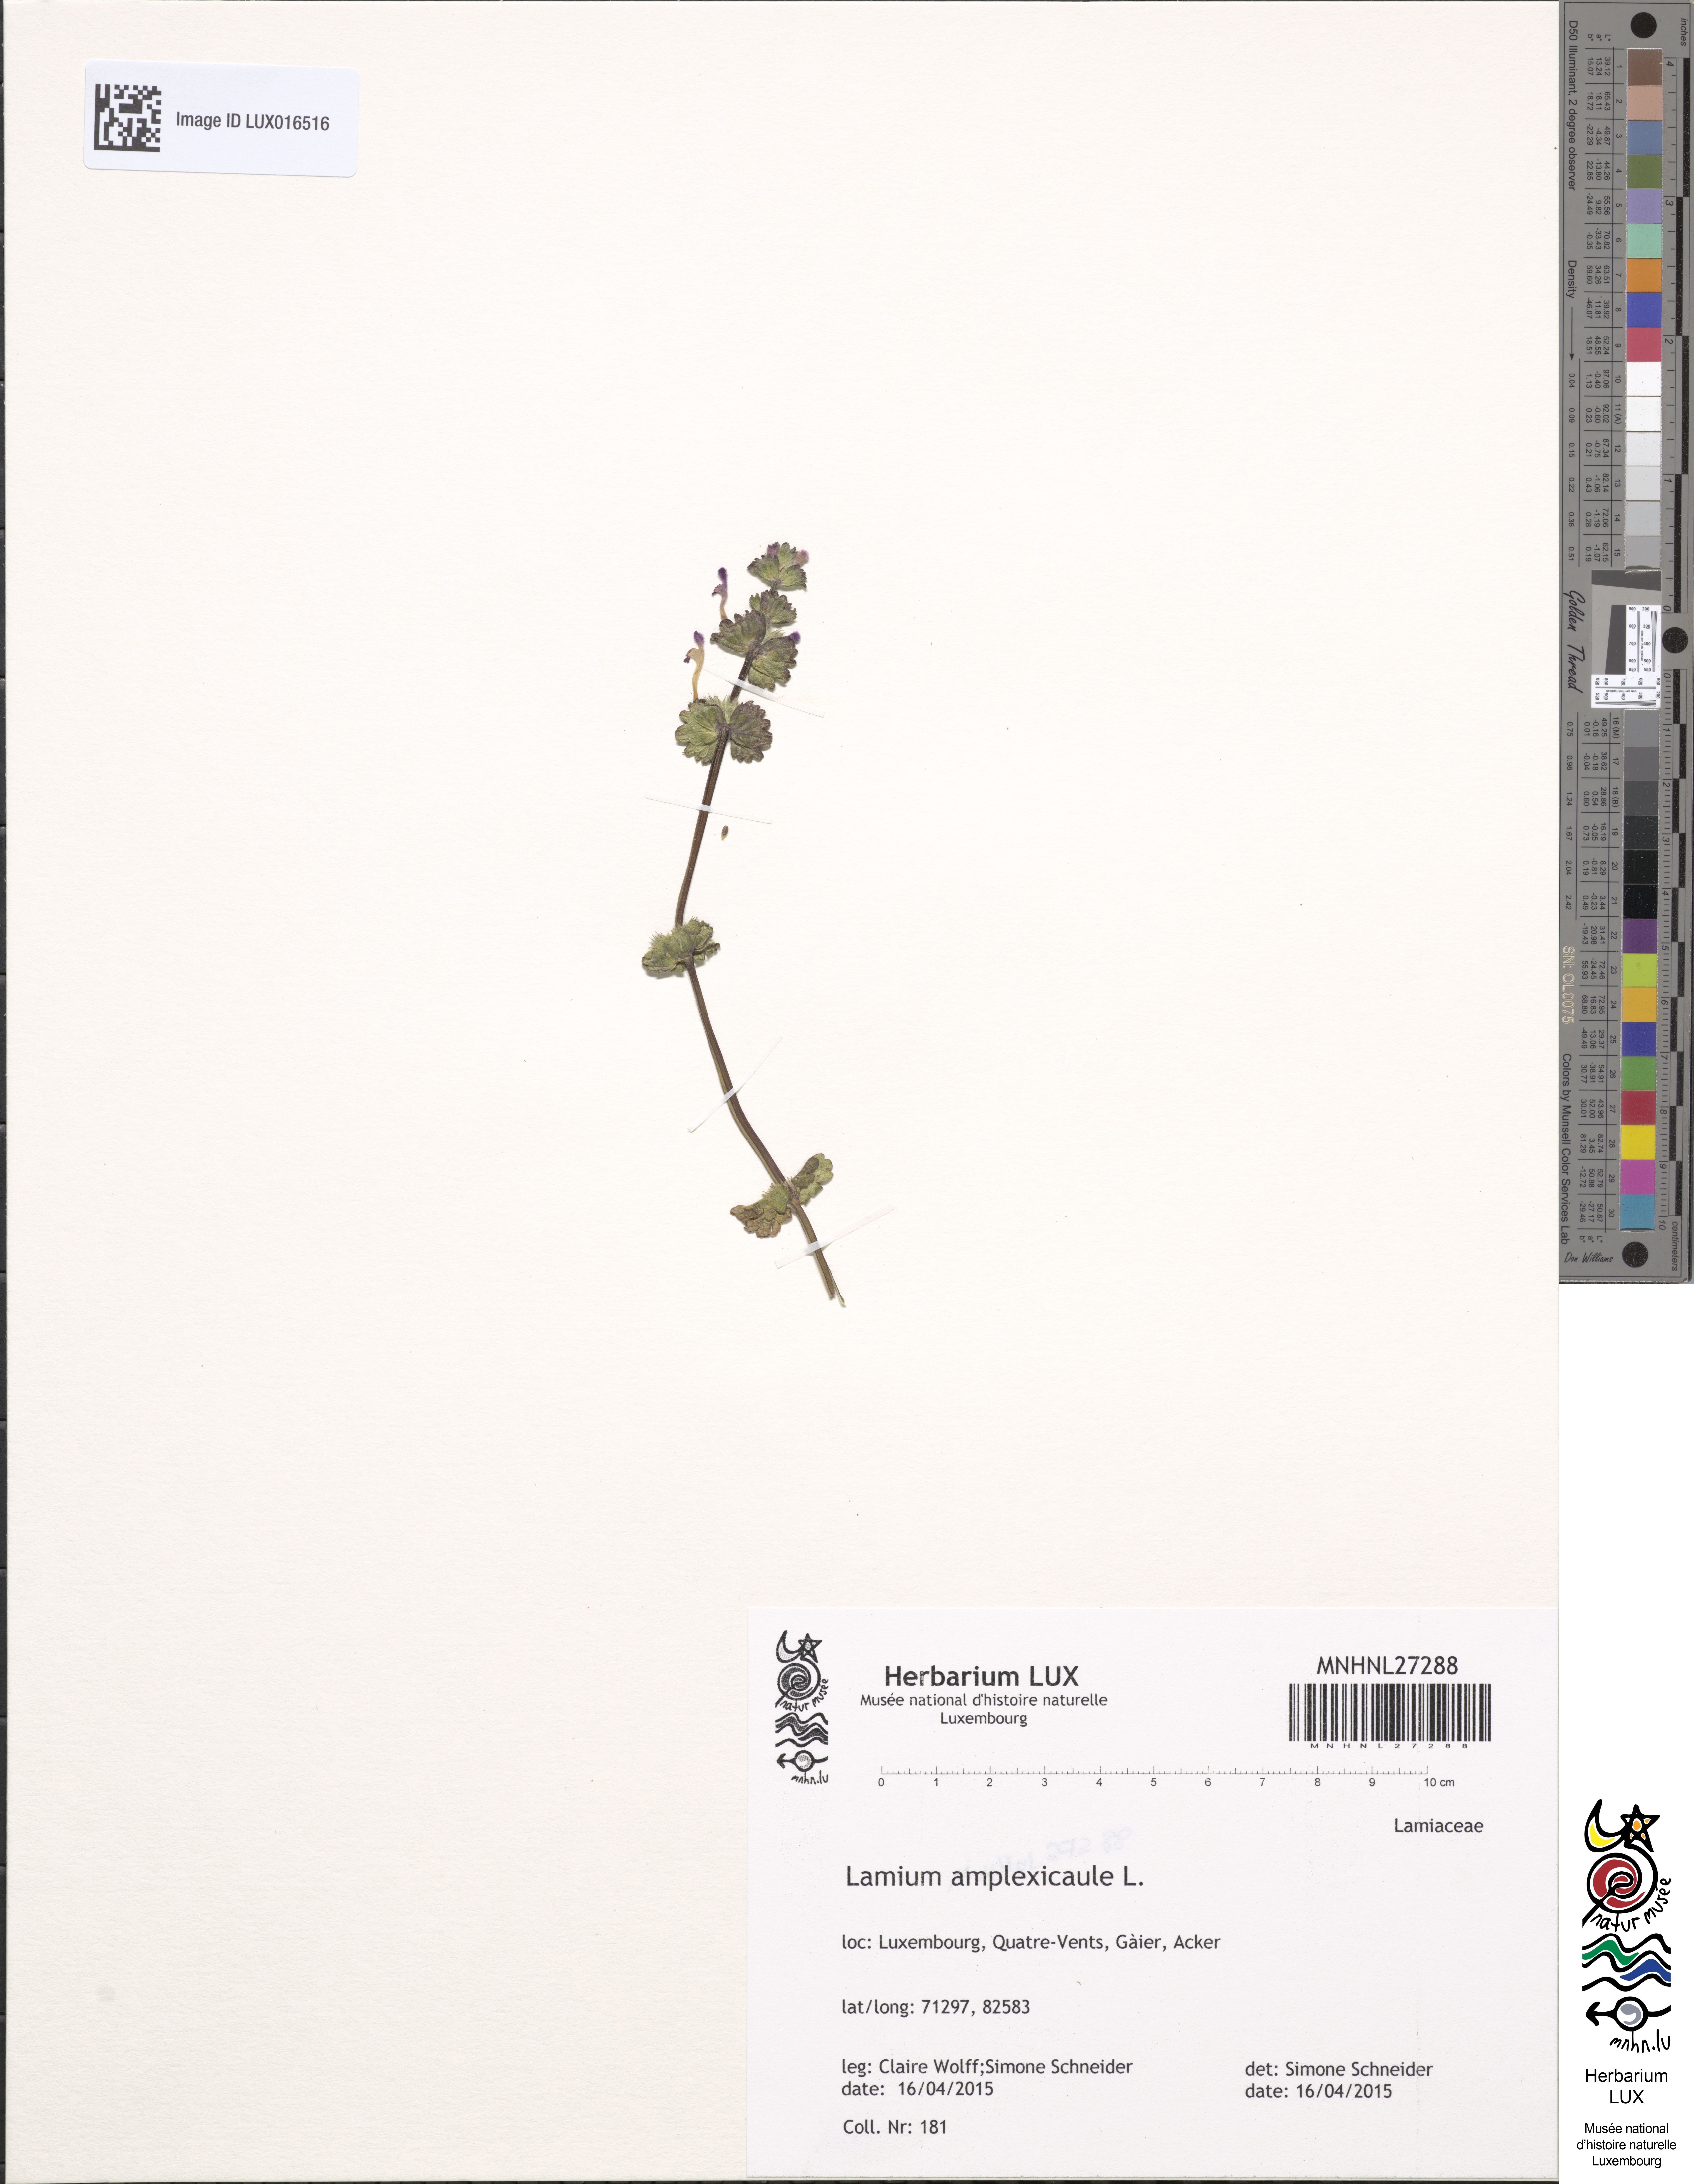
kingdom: Plantae
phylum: Tracheophyta
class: Magnoliopsida
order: Lamiales
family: Lamiaceae
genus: Lamium
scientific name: Lamium amplexicaule
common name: Henbit dead-nettle
